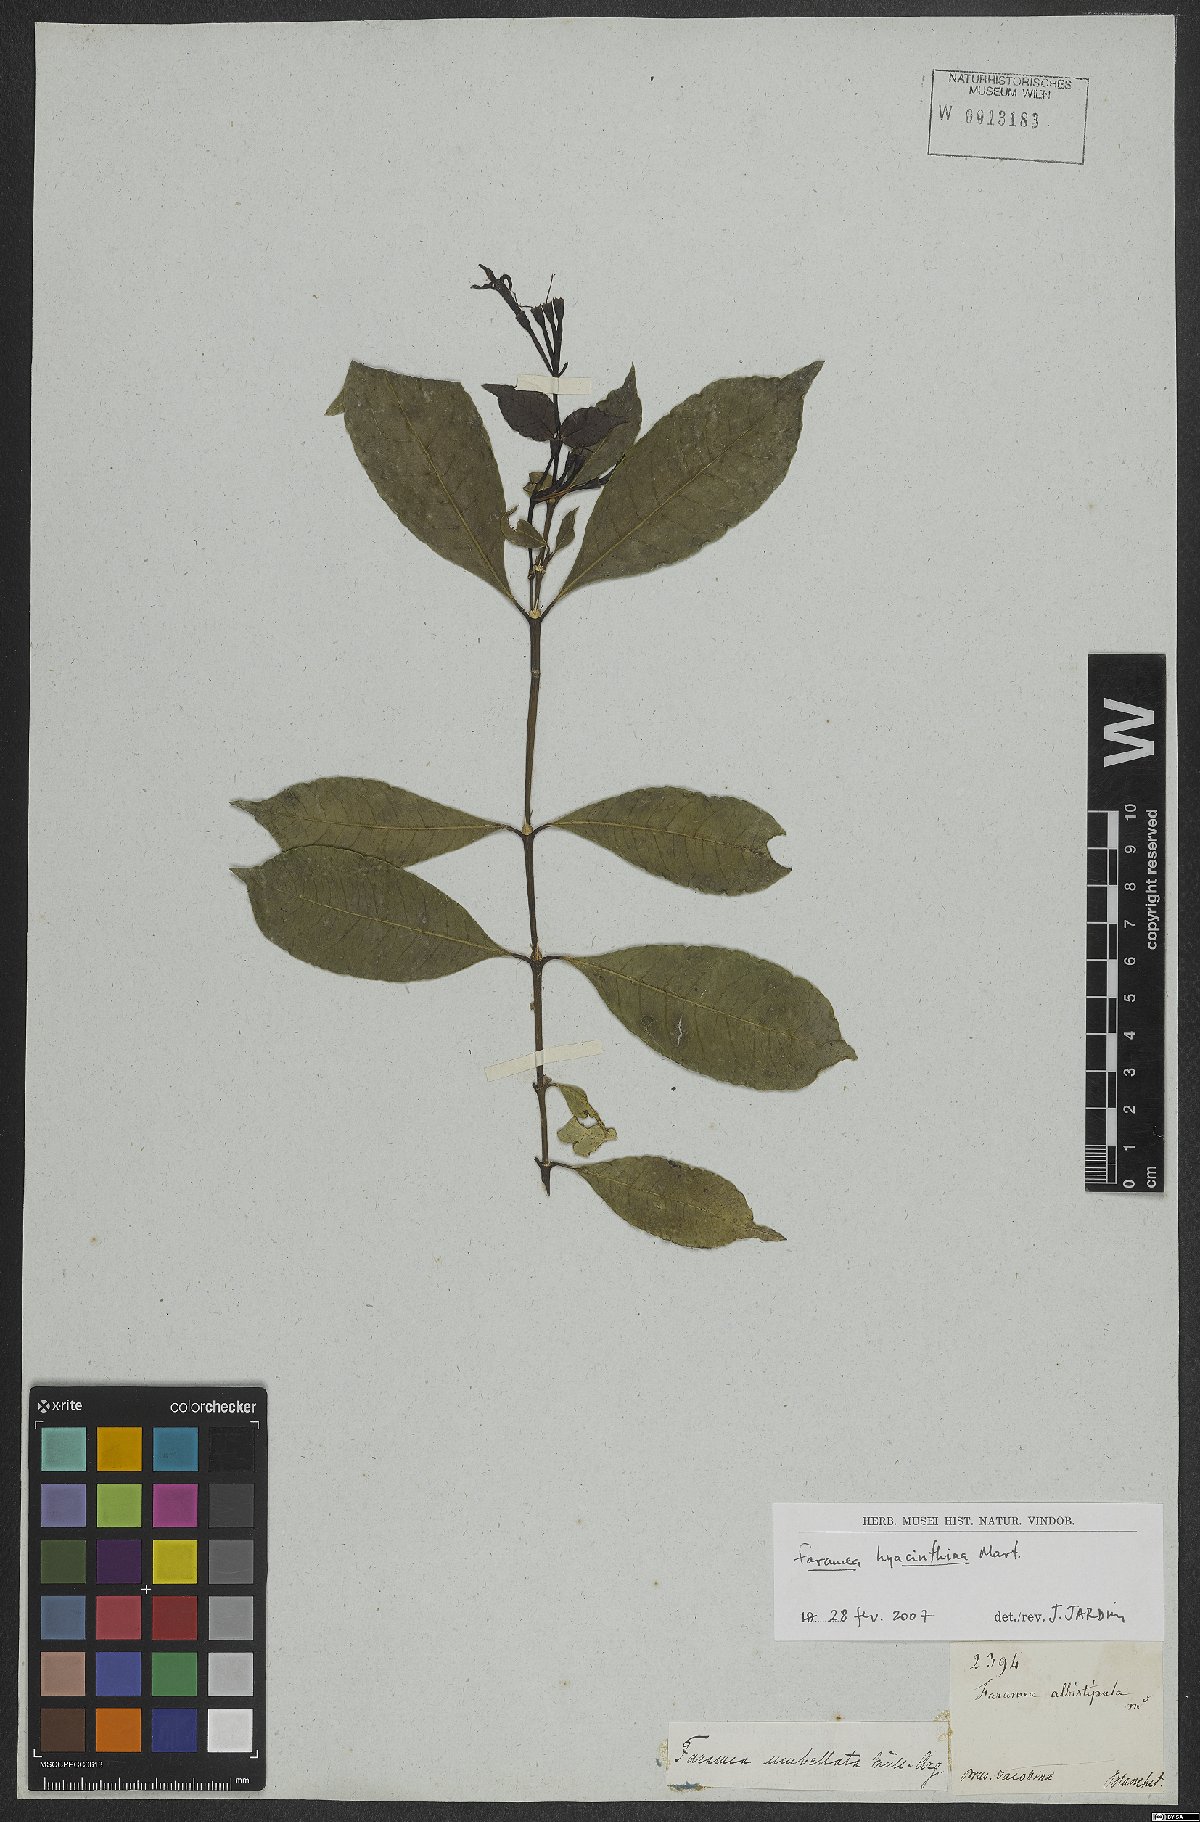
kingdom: Plantae
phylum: Tracheophyta
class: Magnoliopsida
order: Gentianales
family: Rubiaceae
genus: Faramea
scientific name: Faramea hyacinthina
